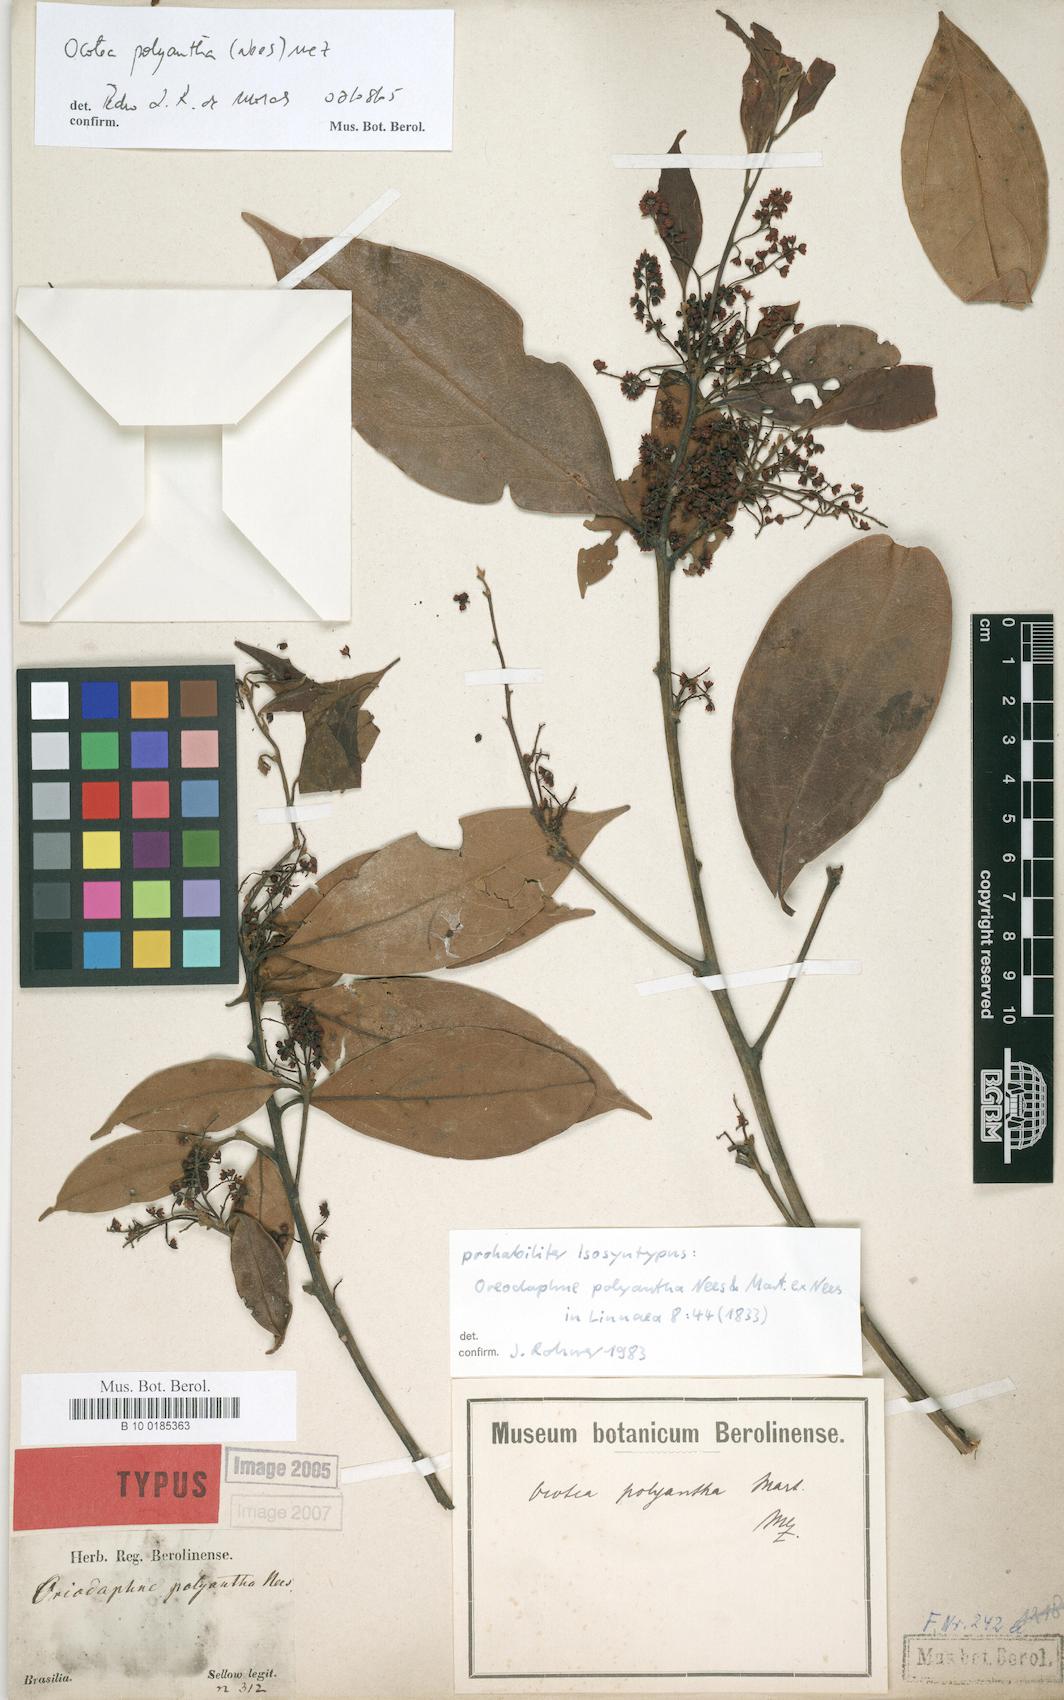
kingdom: Plantae
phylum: Tracheophyta
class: Magnoliopsida
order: Laurales
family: Lauraceae
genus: Ocotea
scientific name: Ocotea polyantha
